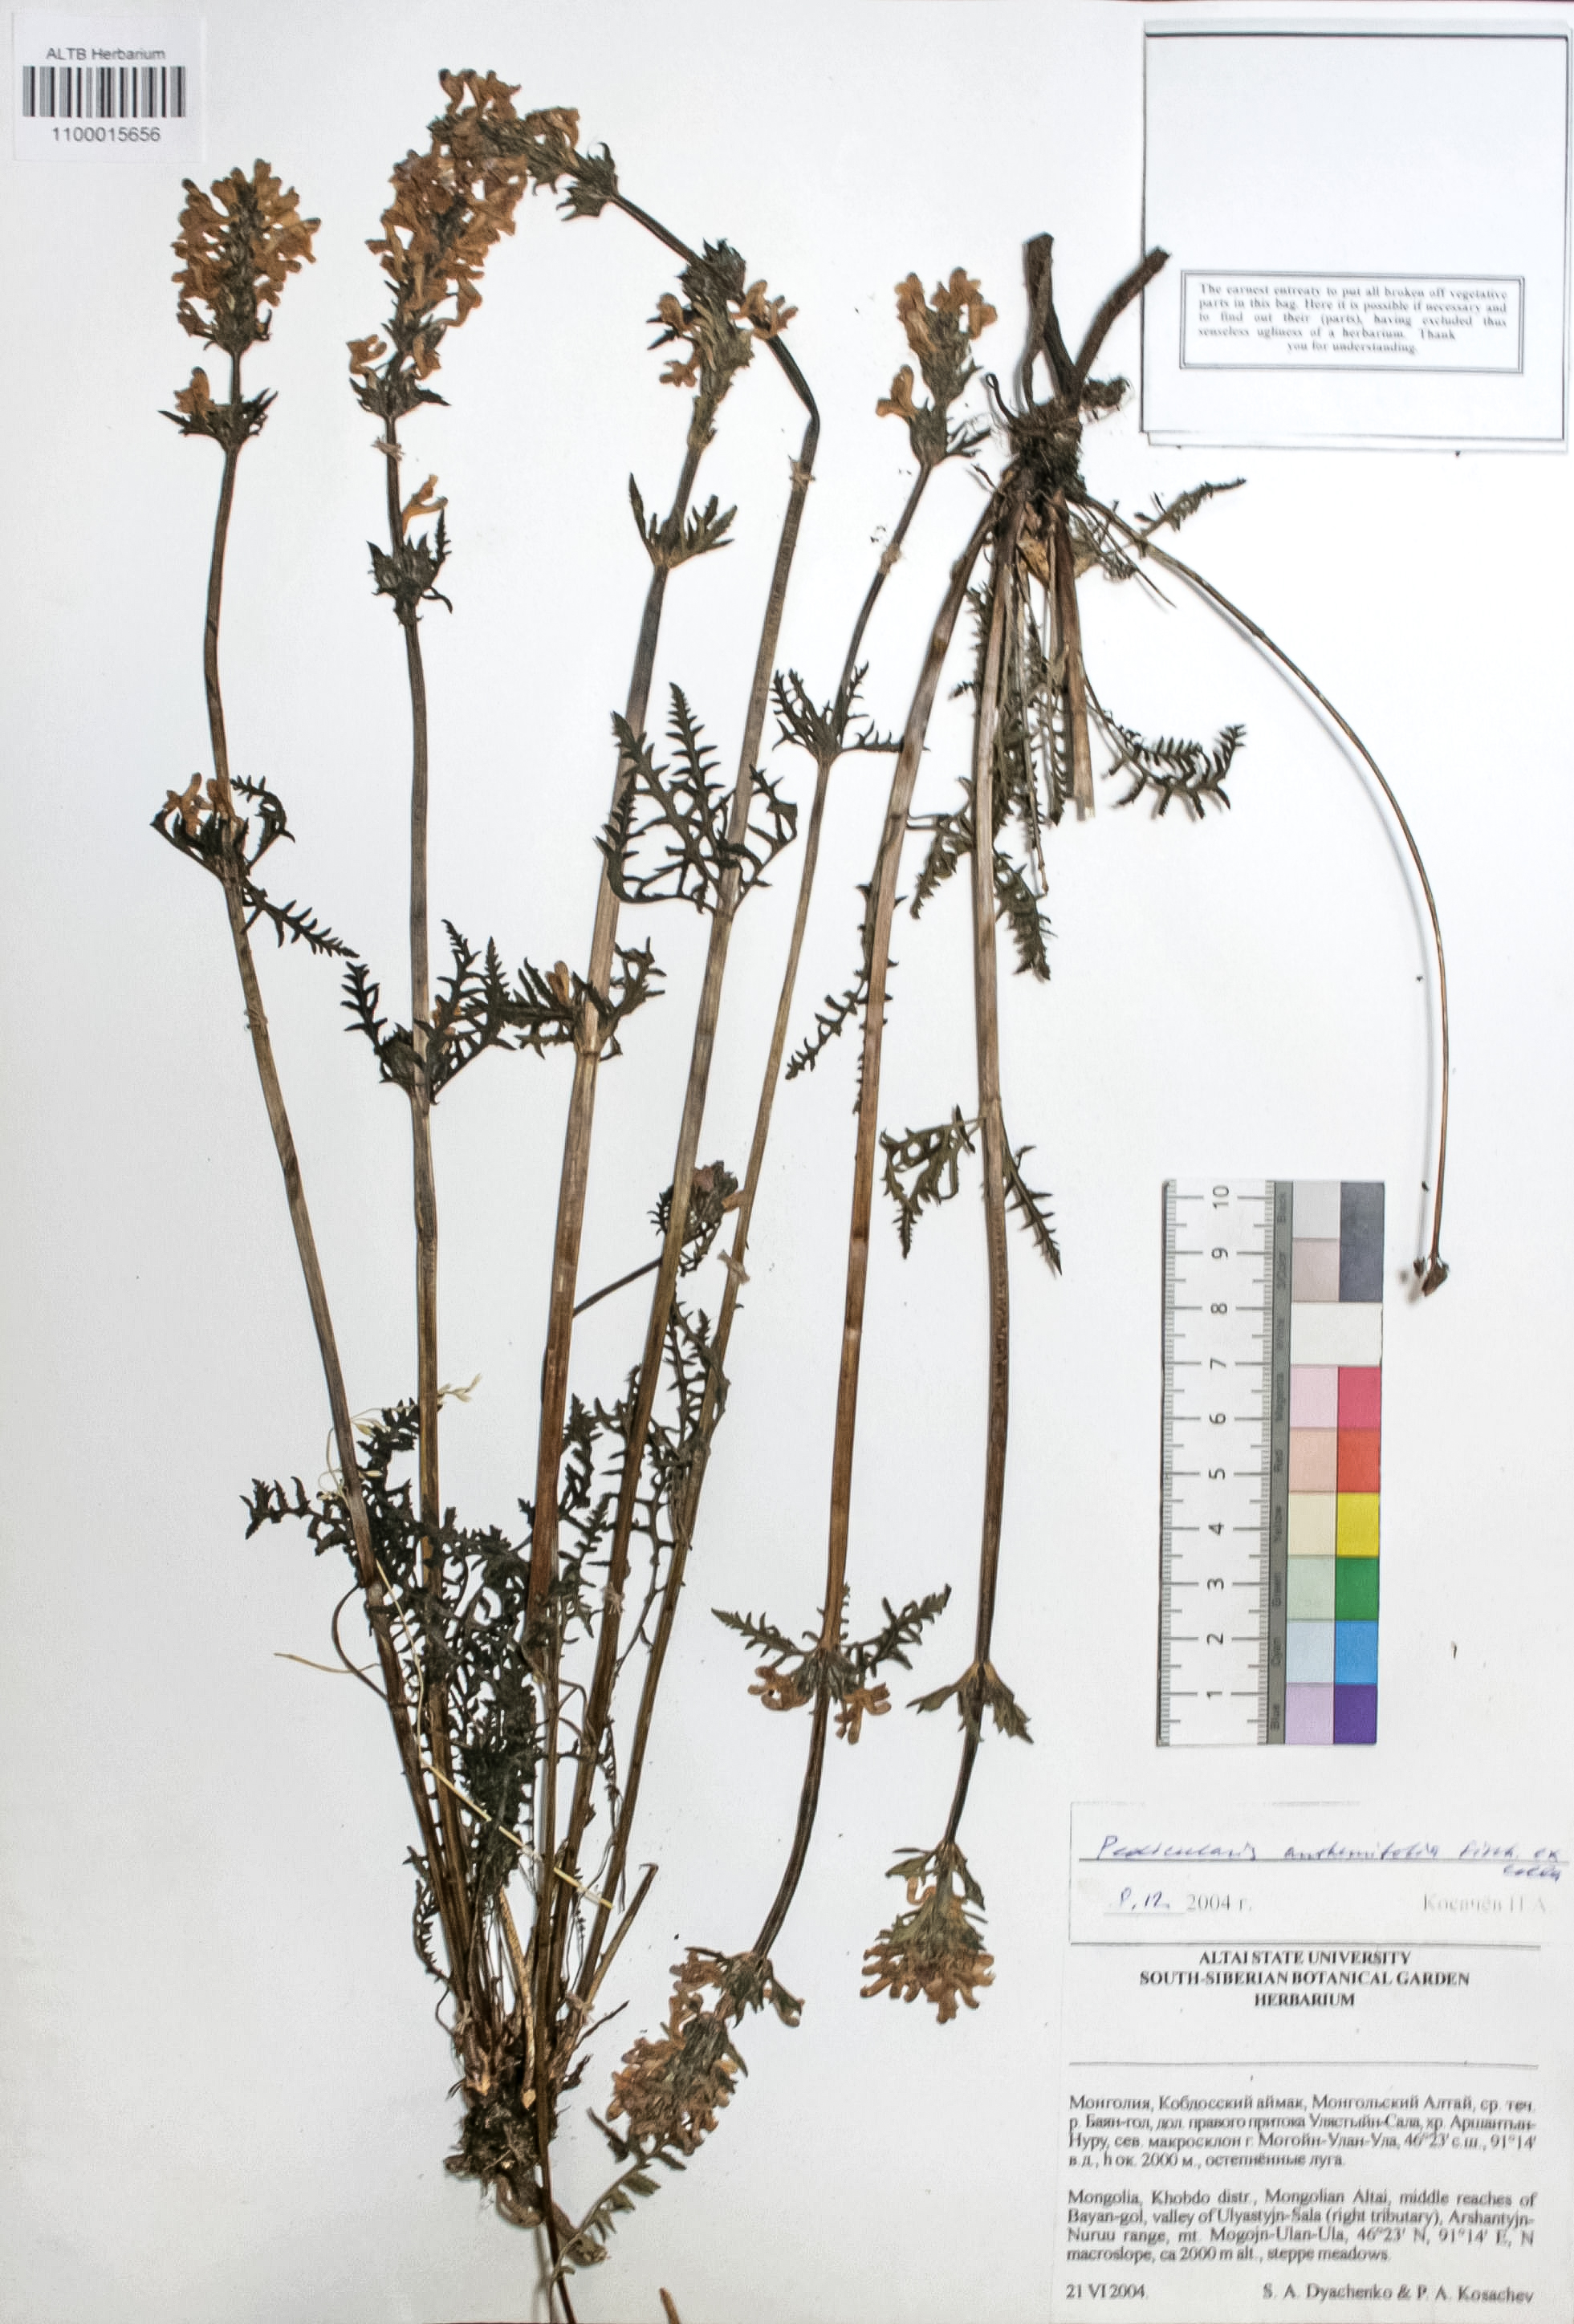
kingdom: Plantae
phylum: Tracheophyta
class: Magnoliopsida
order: Lamiales
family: Orobanchaceae
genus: Pedicularis
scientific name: Pedicularis anthemifolia
